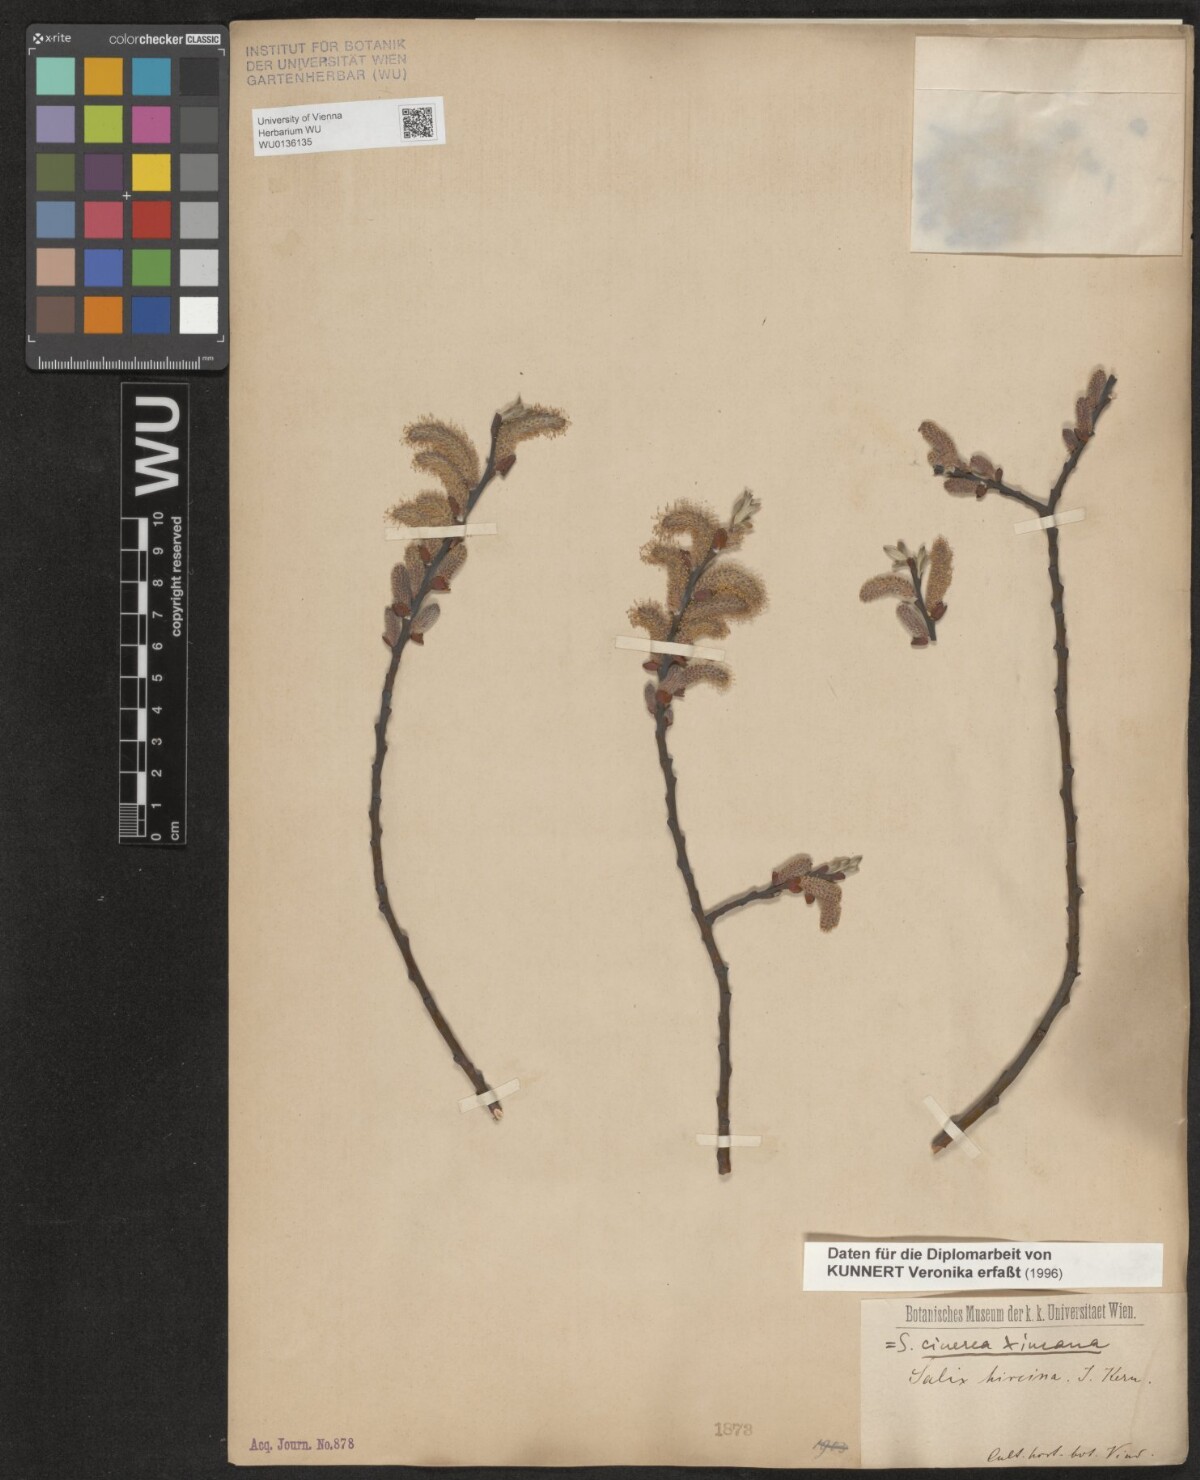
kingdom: Plantae
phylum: Tracheophyta
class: Magnoliopsida
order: Malpighiales
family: Salicaceae
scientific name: Salicaceae
